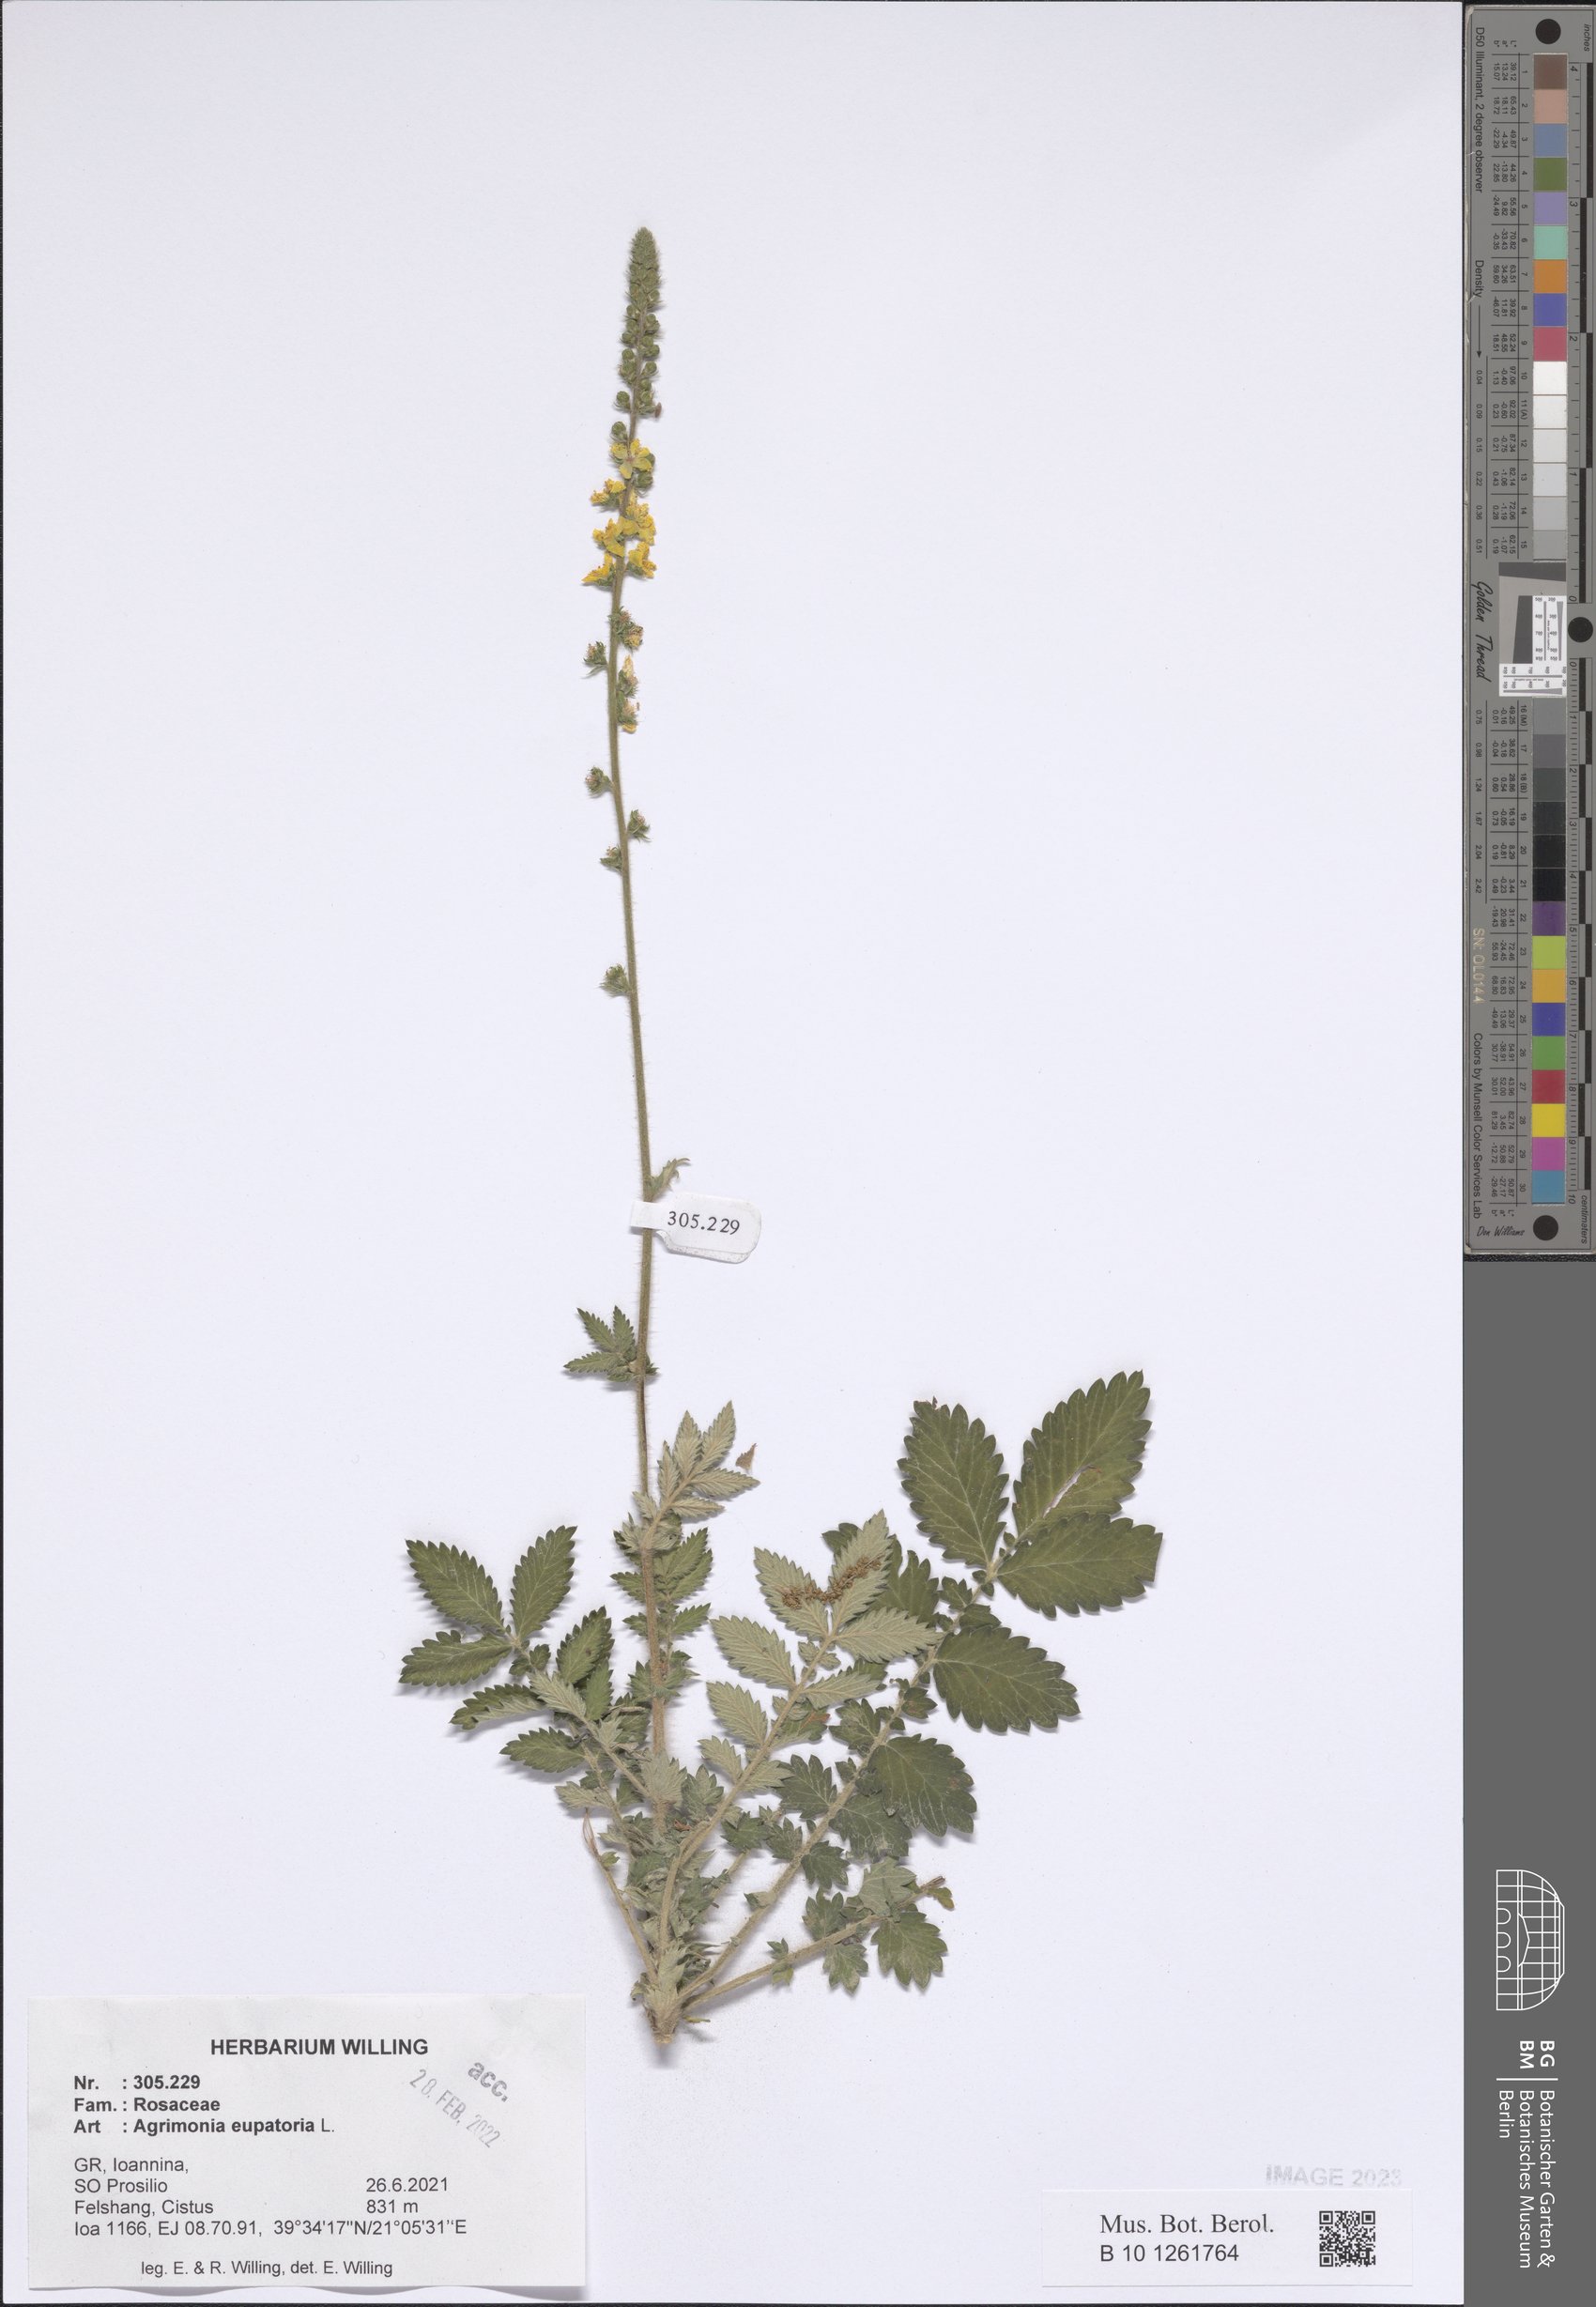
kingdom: Plantae
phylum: Tracheophyta
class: Magnoliopsida
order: Rosales
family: Rosaceae
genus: Agrimonia
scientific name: Agrimonia eupatoria
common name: Agrimony
